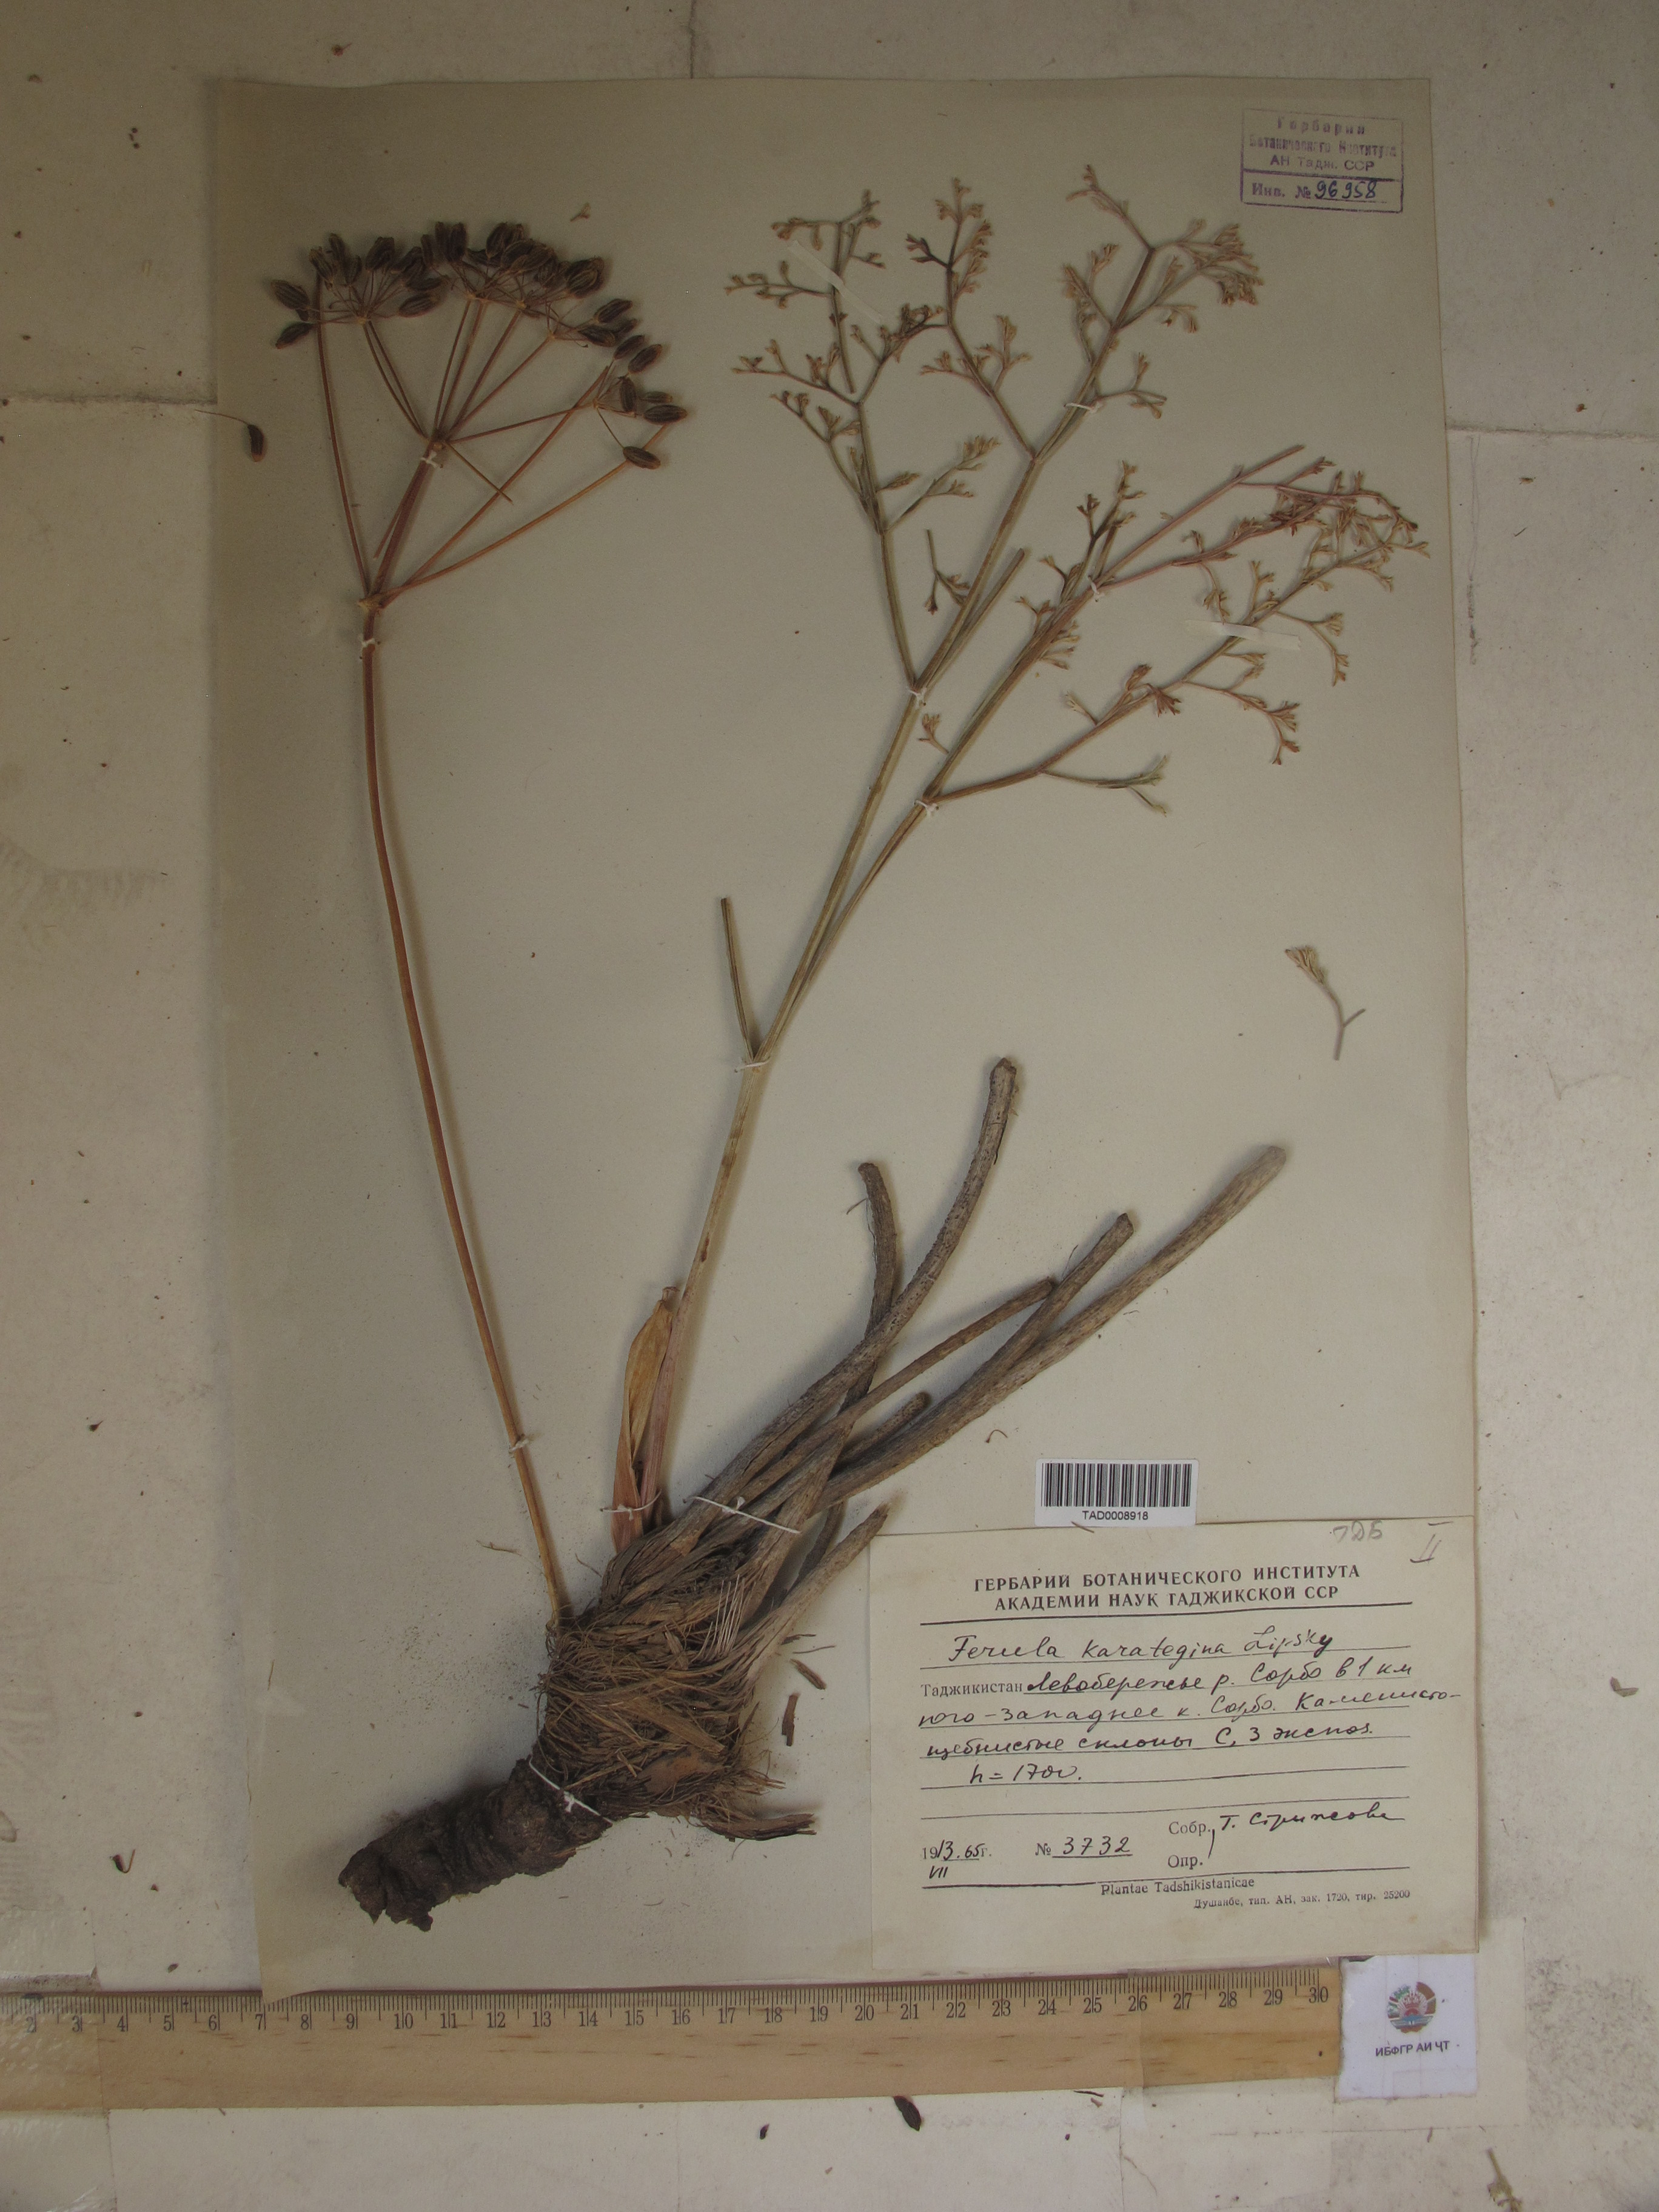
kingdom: Plantae
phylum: Tracheophyta
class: Magnoliopsida
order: Apiales
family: Apiaceae
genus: Ferula
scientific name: Ferula karategina
